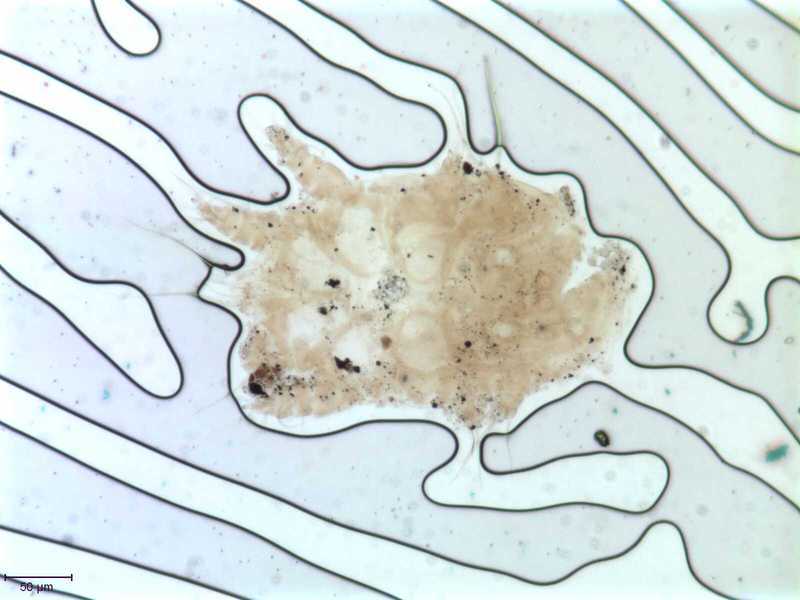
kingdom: Animalia
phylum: Hemichordata
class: Enteropneusta
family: Harrimaniidae
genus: Horstia
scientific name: Horstia
